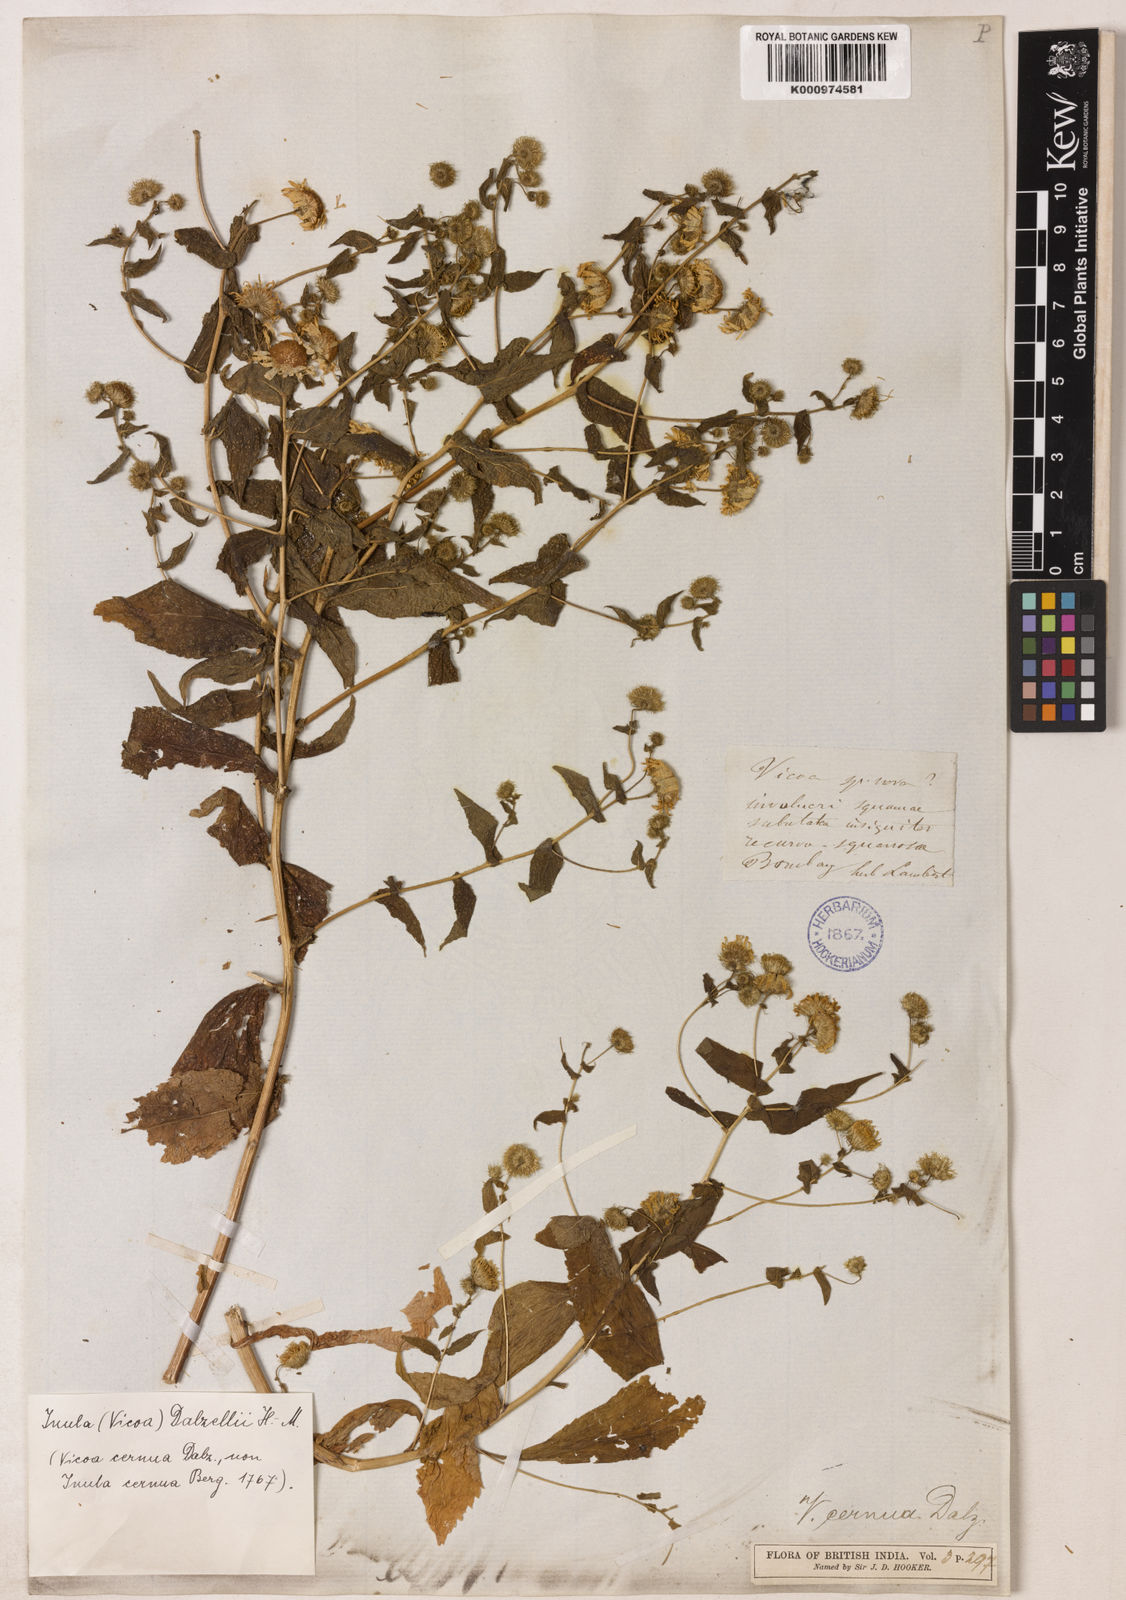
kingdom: Plantae
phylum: Tracheophyta
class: Magnoliopsida
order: Asterales
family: Asteraceae
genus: Vicoa
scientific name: Vicoa cernua
